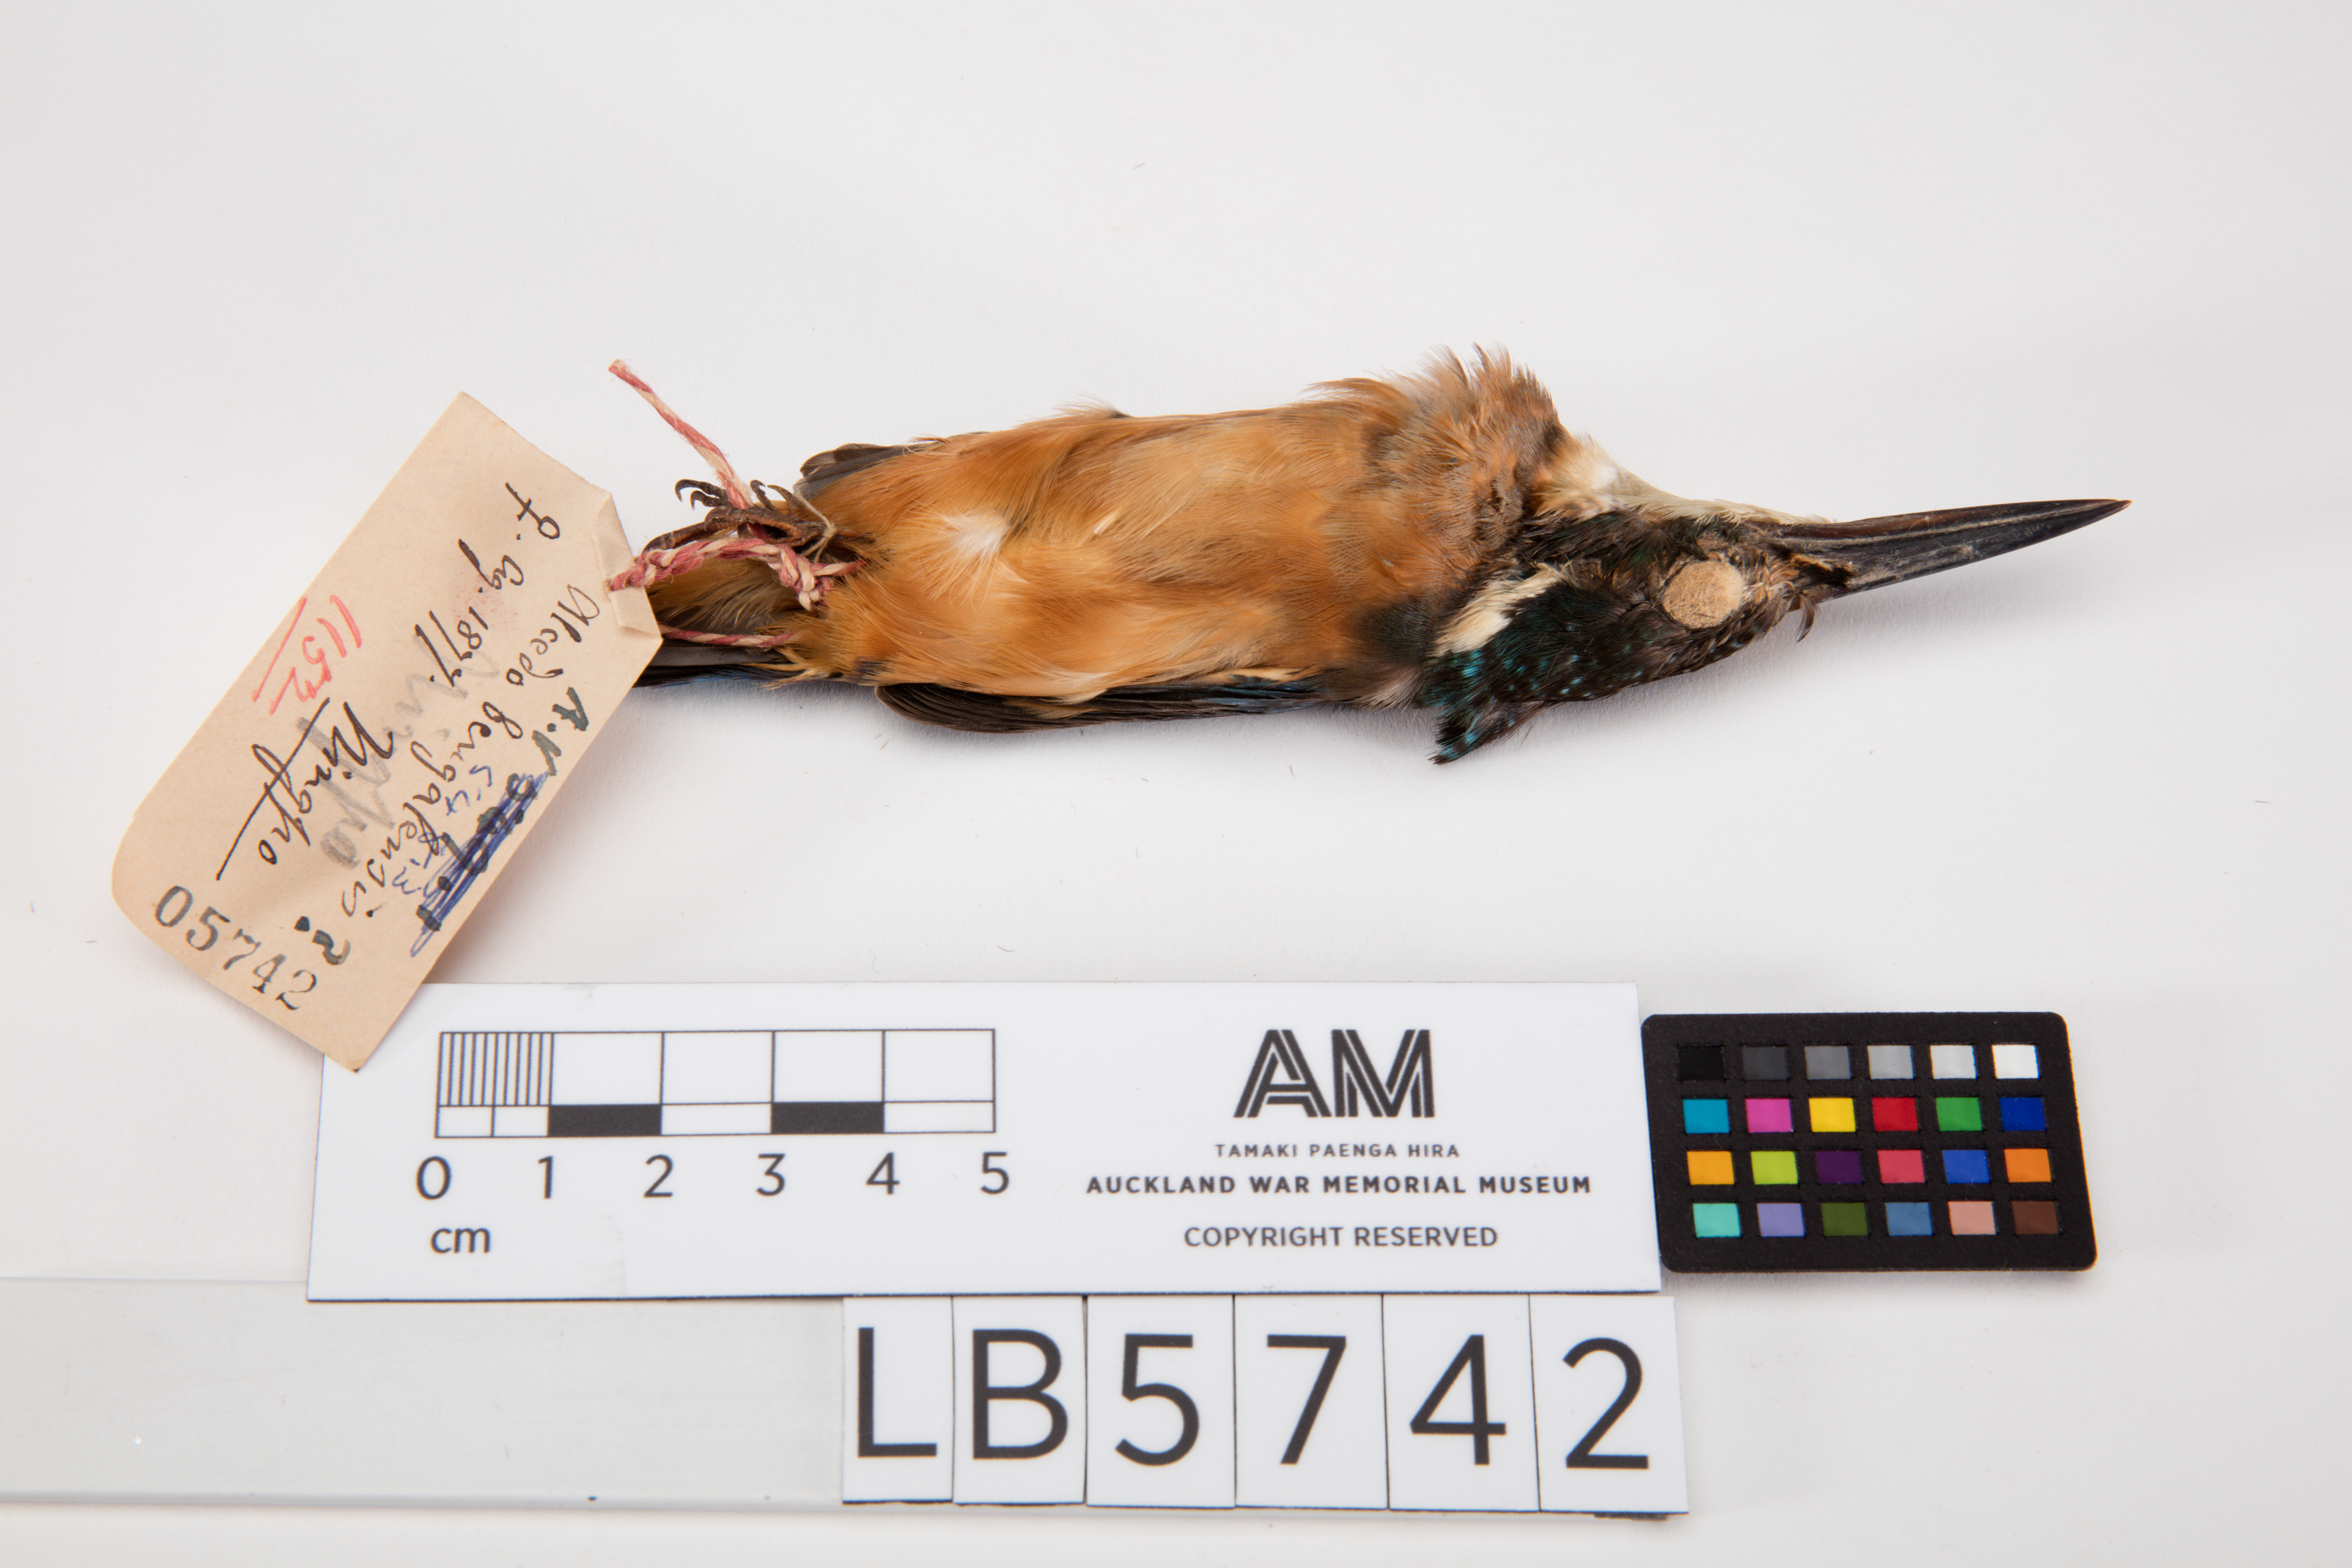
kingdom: Animalia
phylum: Chordata
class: Aves
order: Coraciiformes
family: Alcedinidae
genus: Alcedo
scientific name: Alcedo atthis
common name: Common kingfisher
